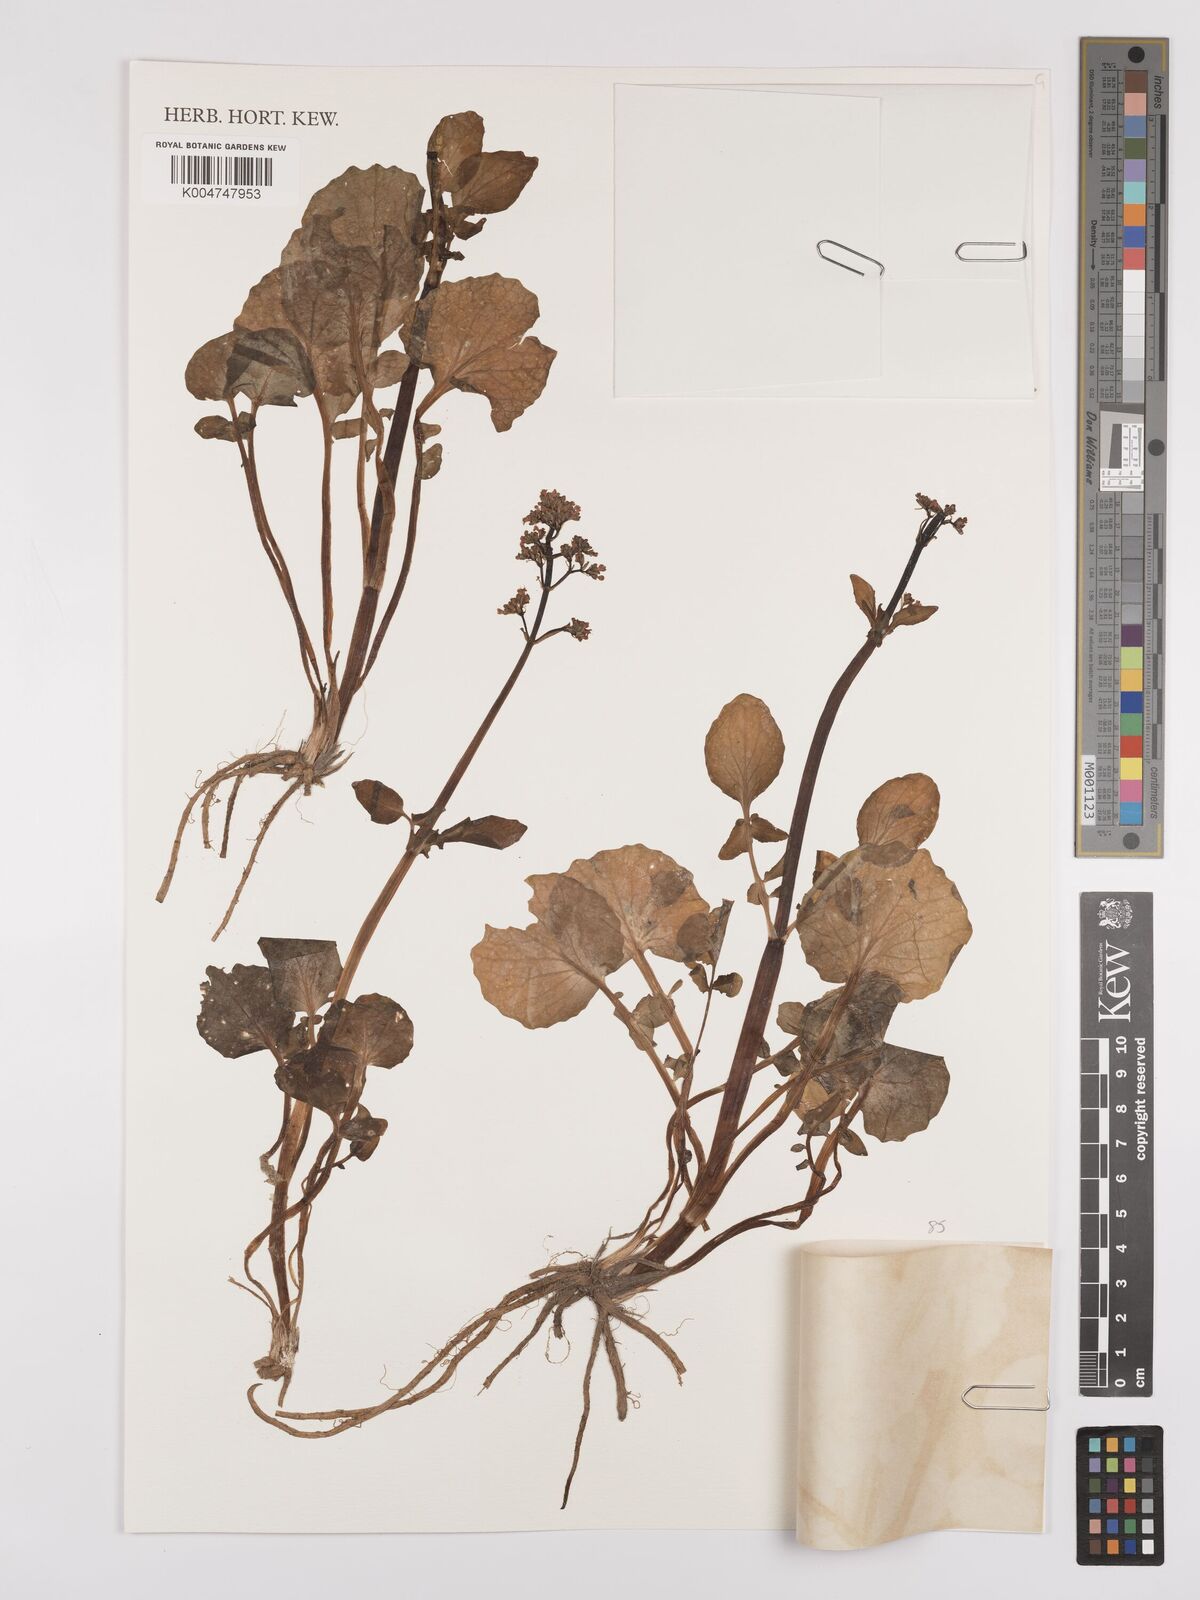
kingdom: Plantae
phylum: Tracheophyta
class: Magnoliopsida
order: Dipsacales
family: Caprifoliaceae
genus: Valeriana
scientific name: Valeriana ficariifolia
